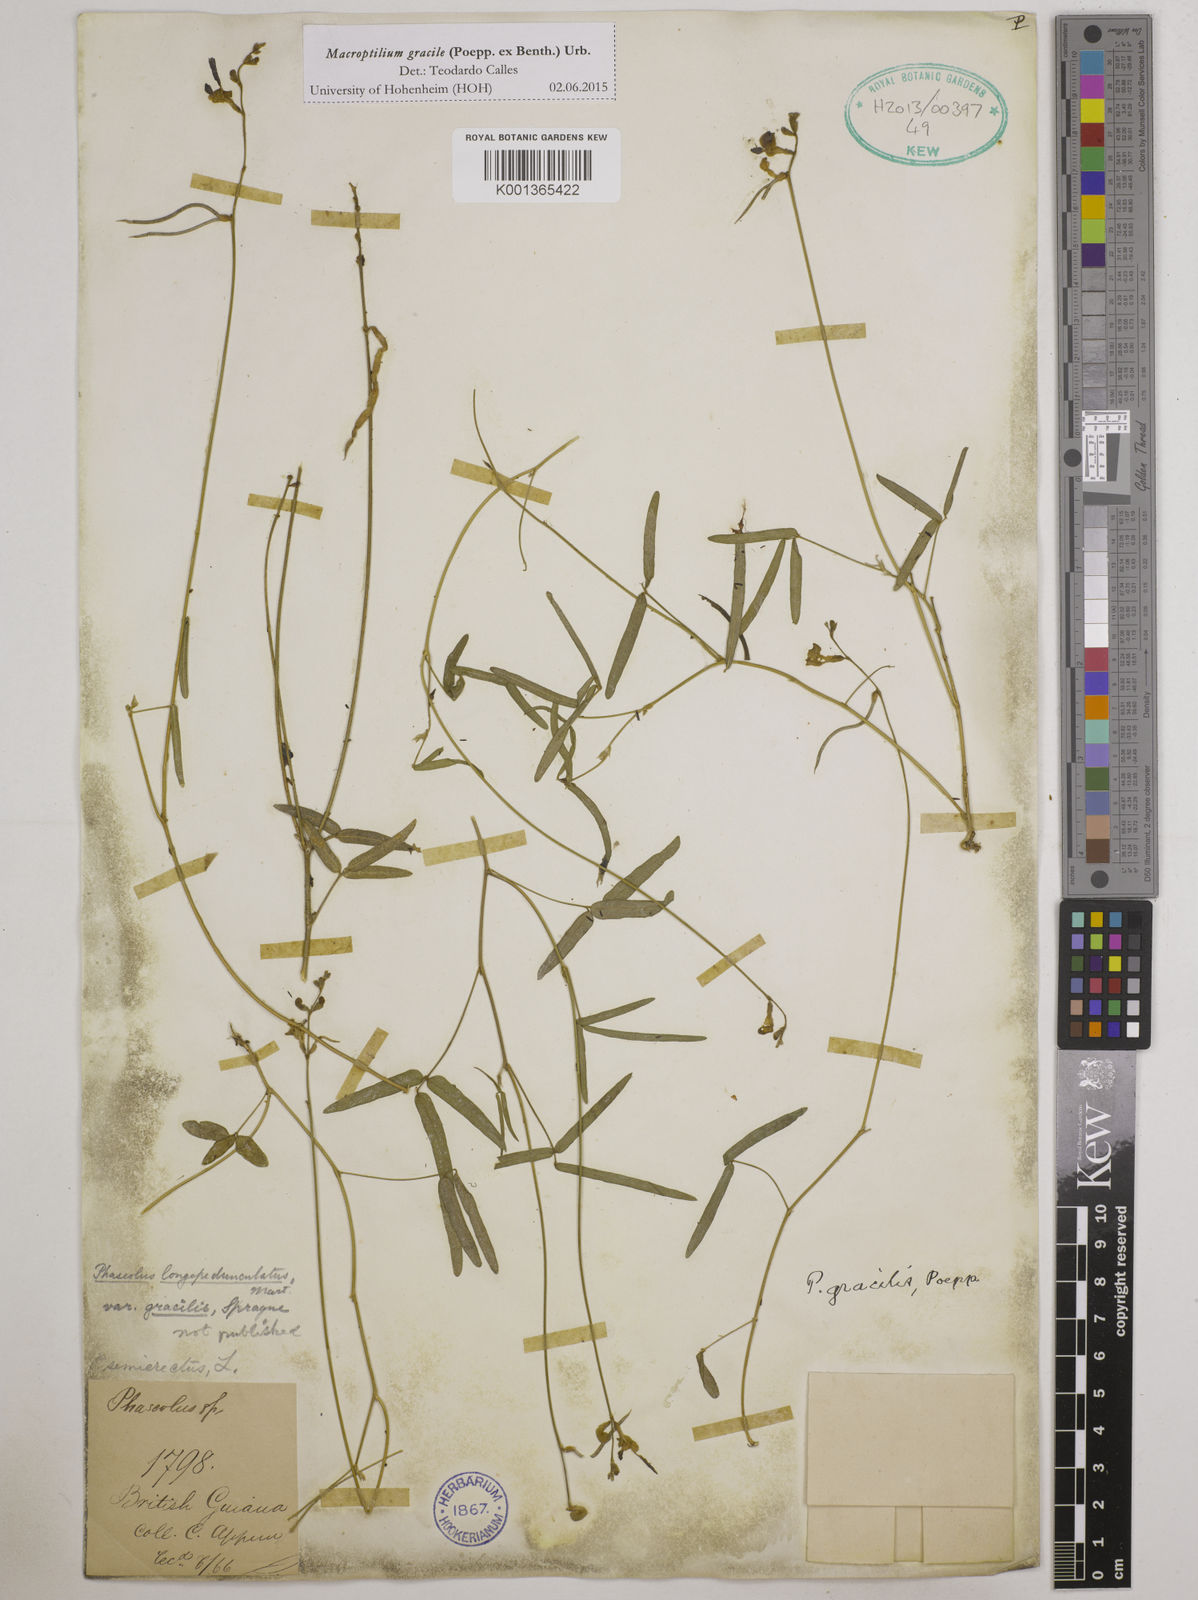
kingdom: Plantae
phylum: Tracheophyta
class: Magnoliopsida
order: Fabales
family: Fabaceae
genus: Macroptilium
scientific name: Macroptilium gracile
